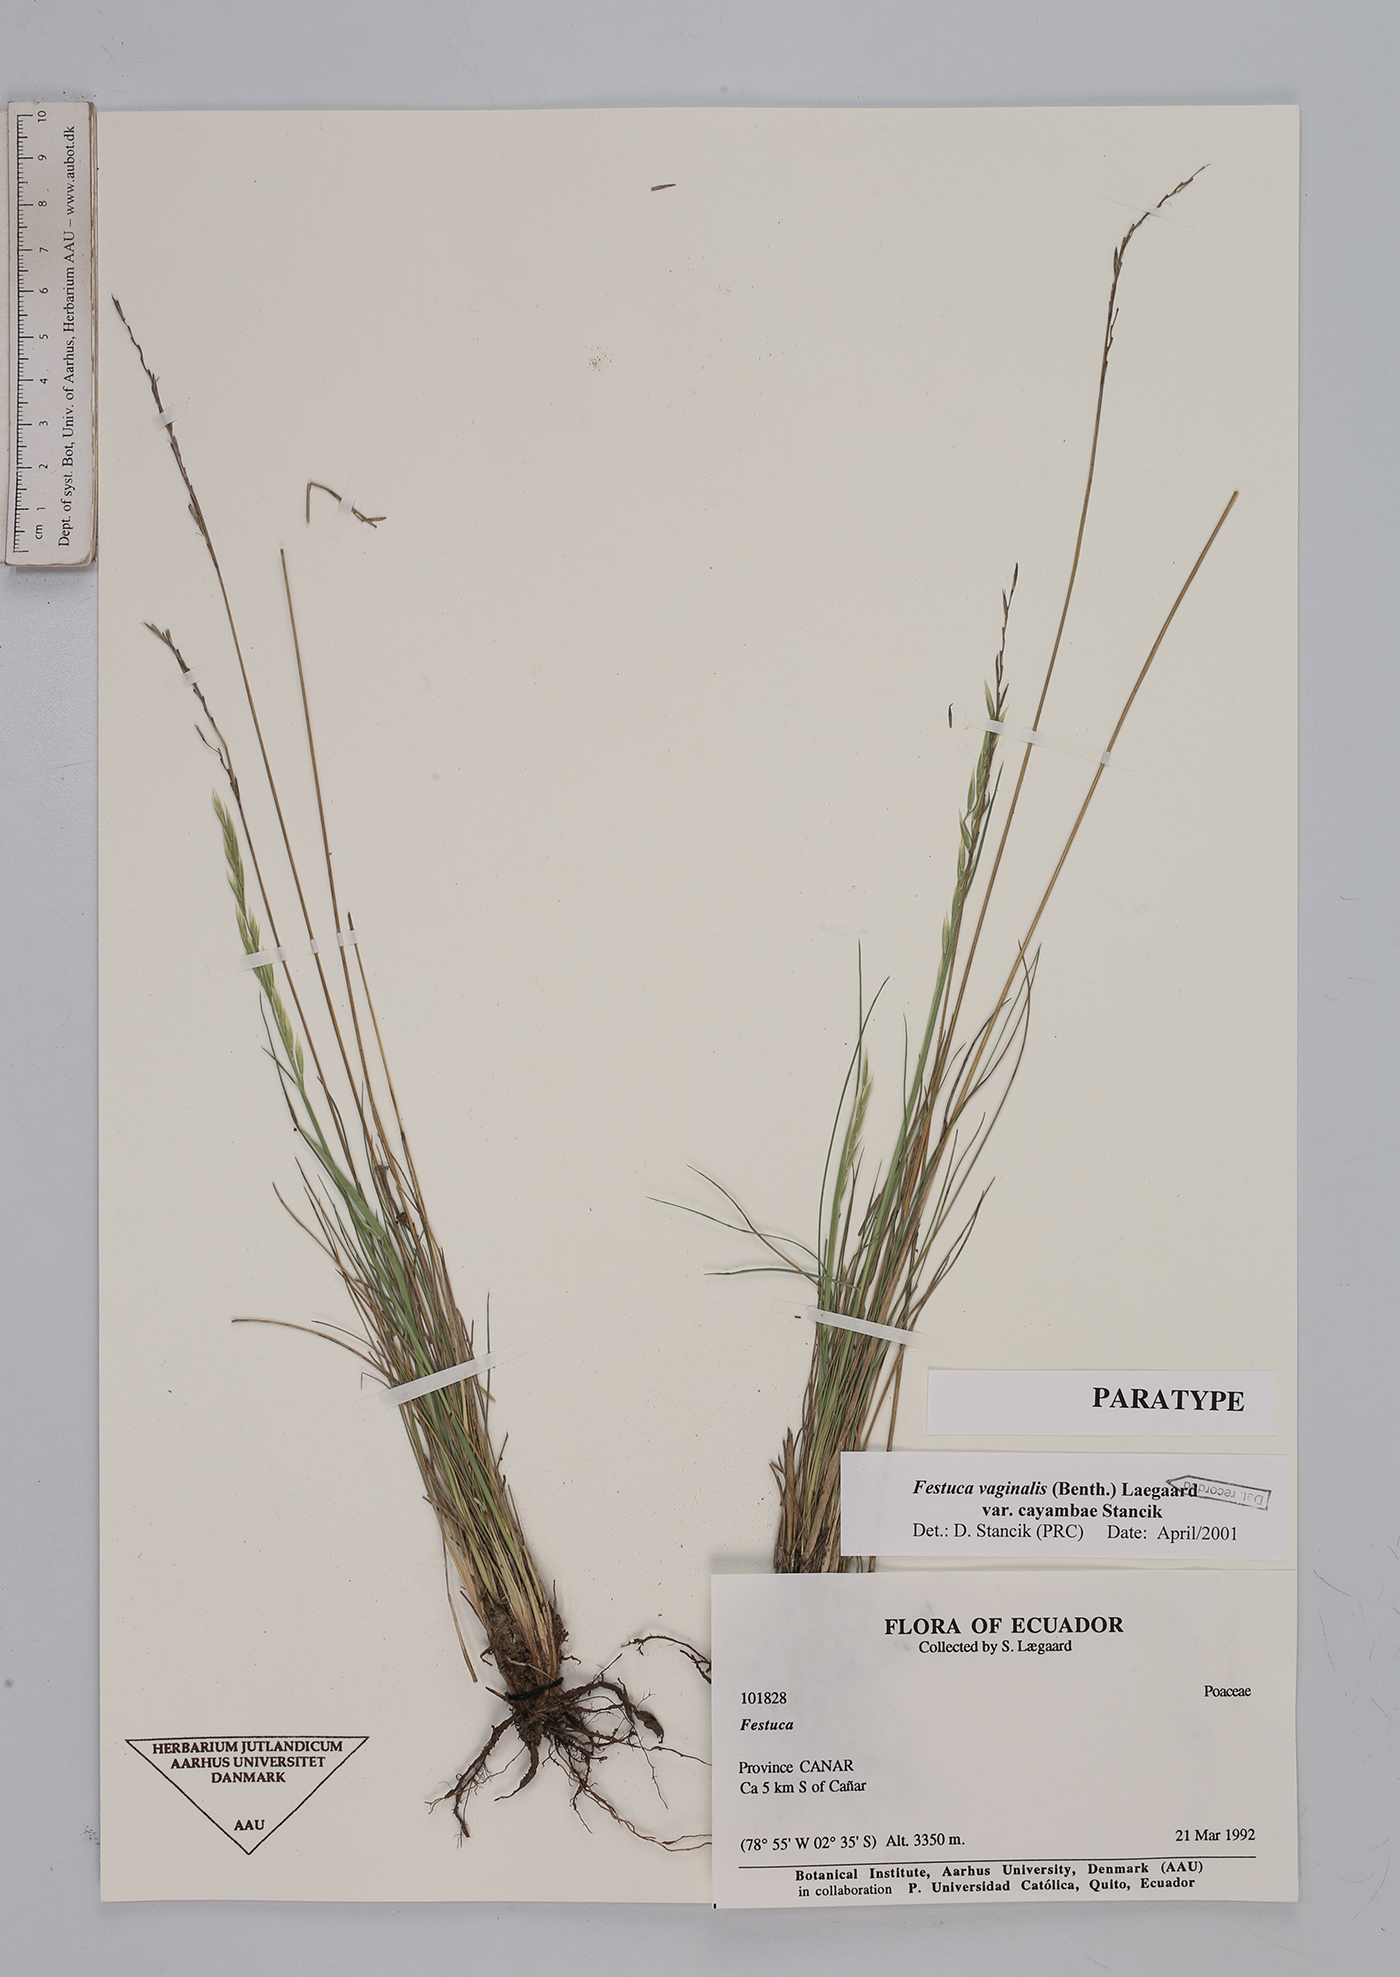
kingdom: Plantae
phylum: Tracheophyta
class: Liliopsida
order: Poales
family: Poaceae
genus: Festuca
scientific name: Festuca vaginalis
